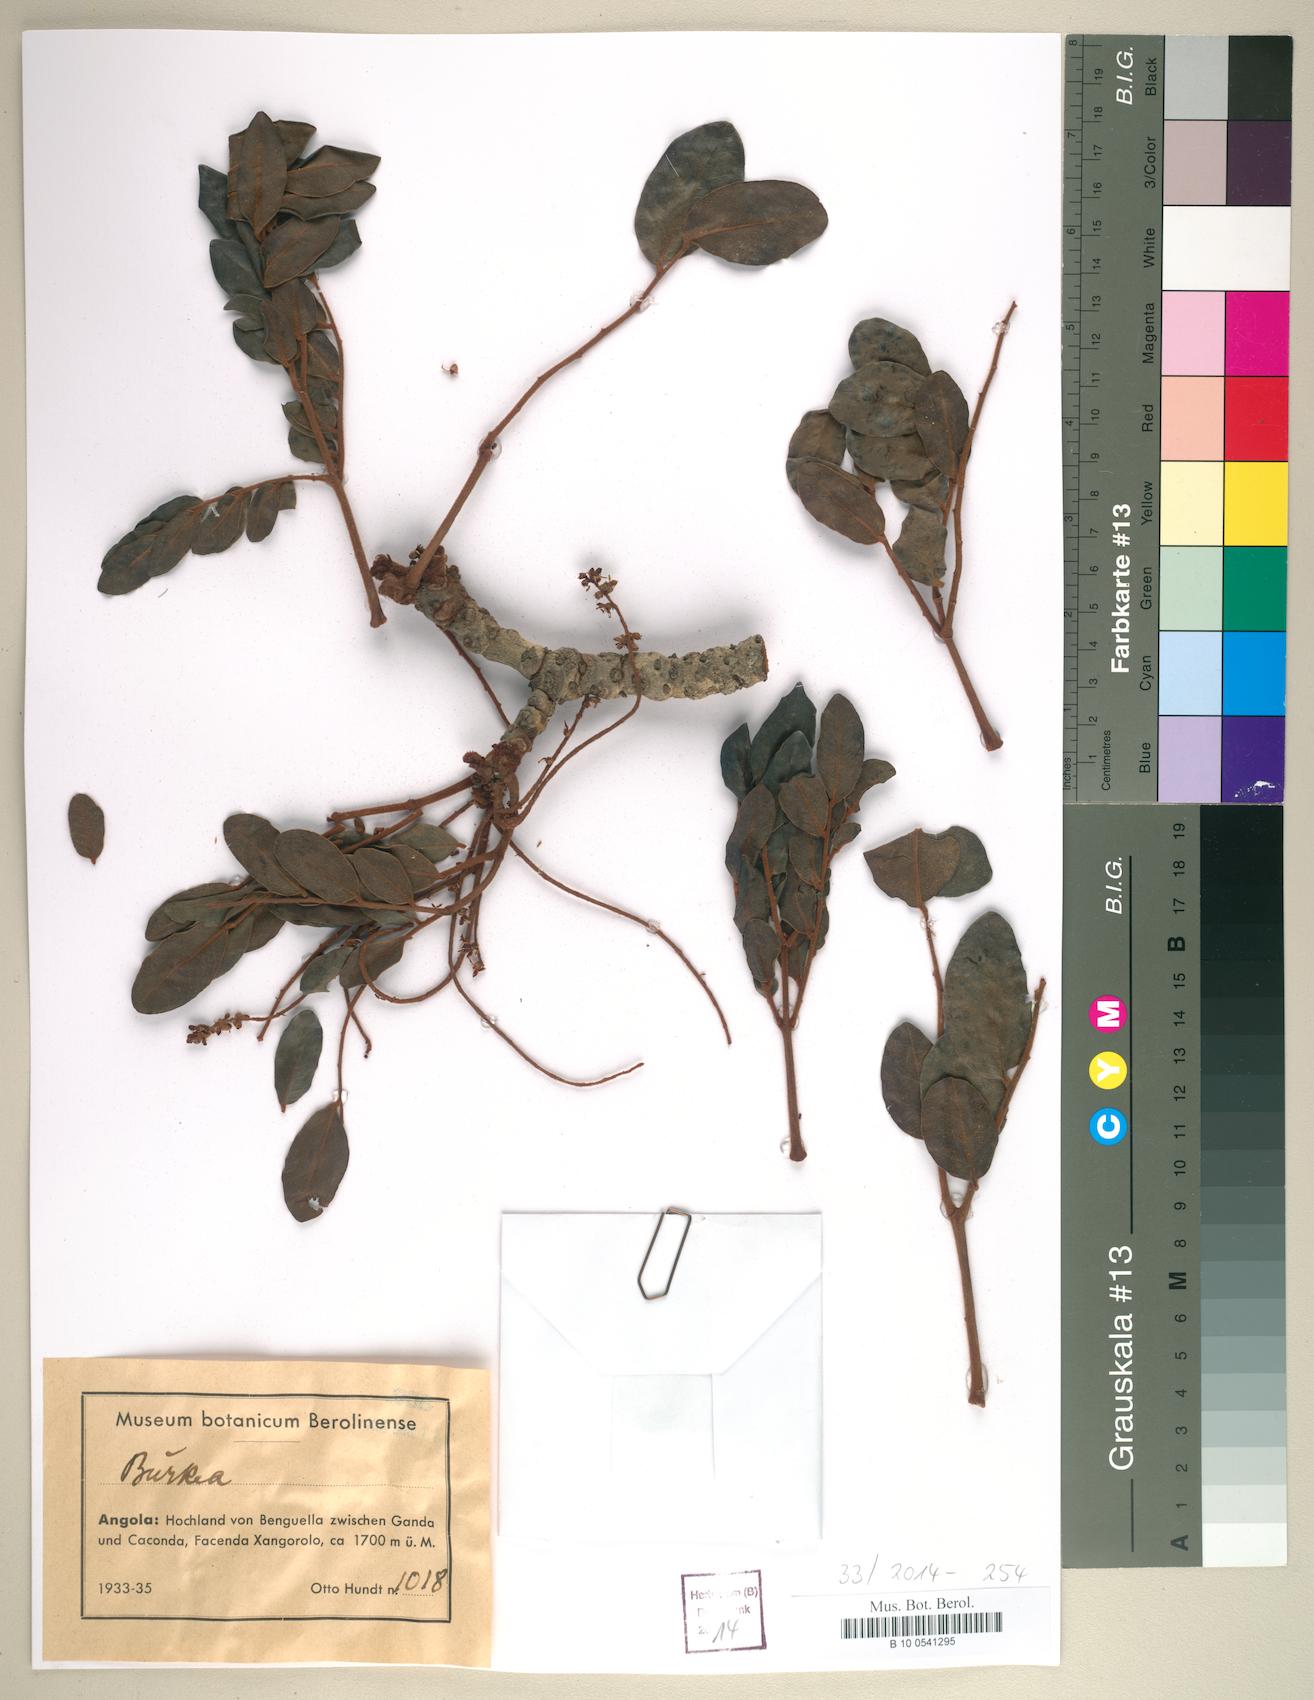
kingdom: Plantae
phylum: Tracheophyta
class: Magnoliopsida
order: Fabales
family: Fabaceae
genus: Burkea
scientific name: Burkea
